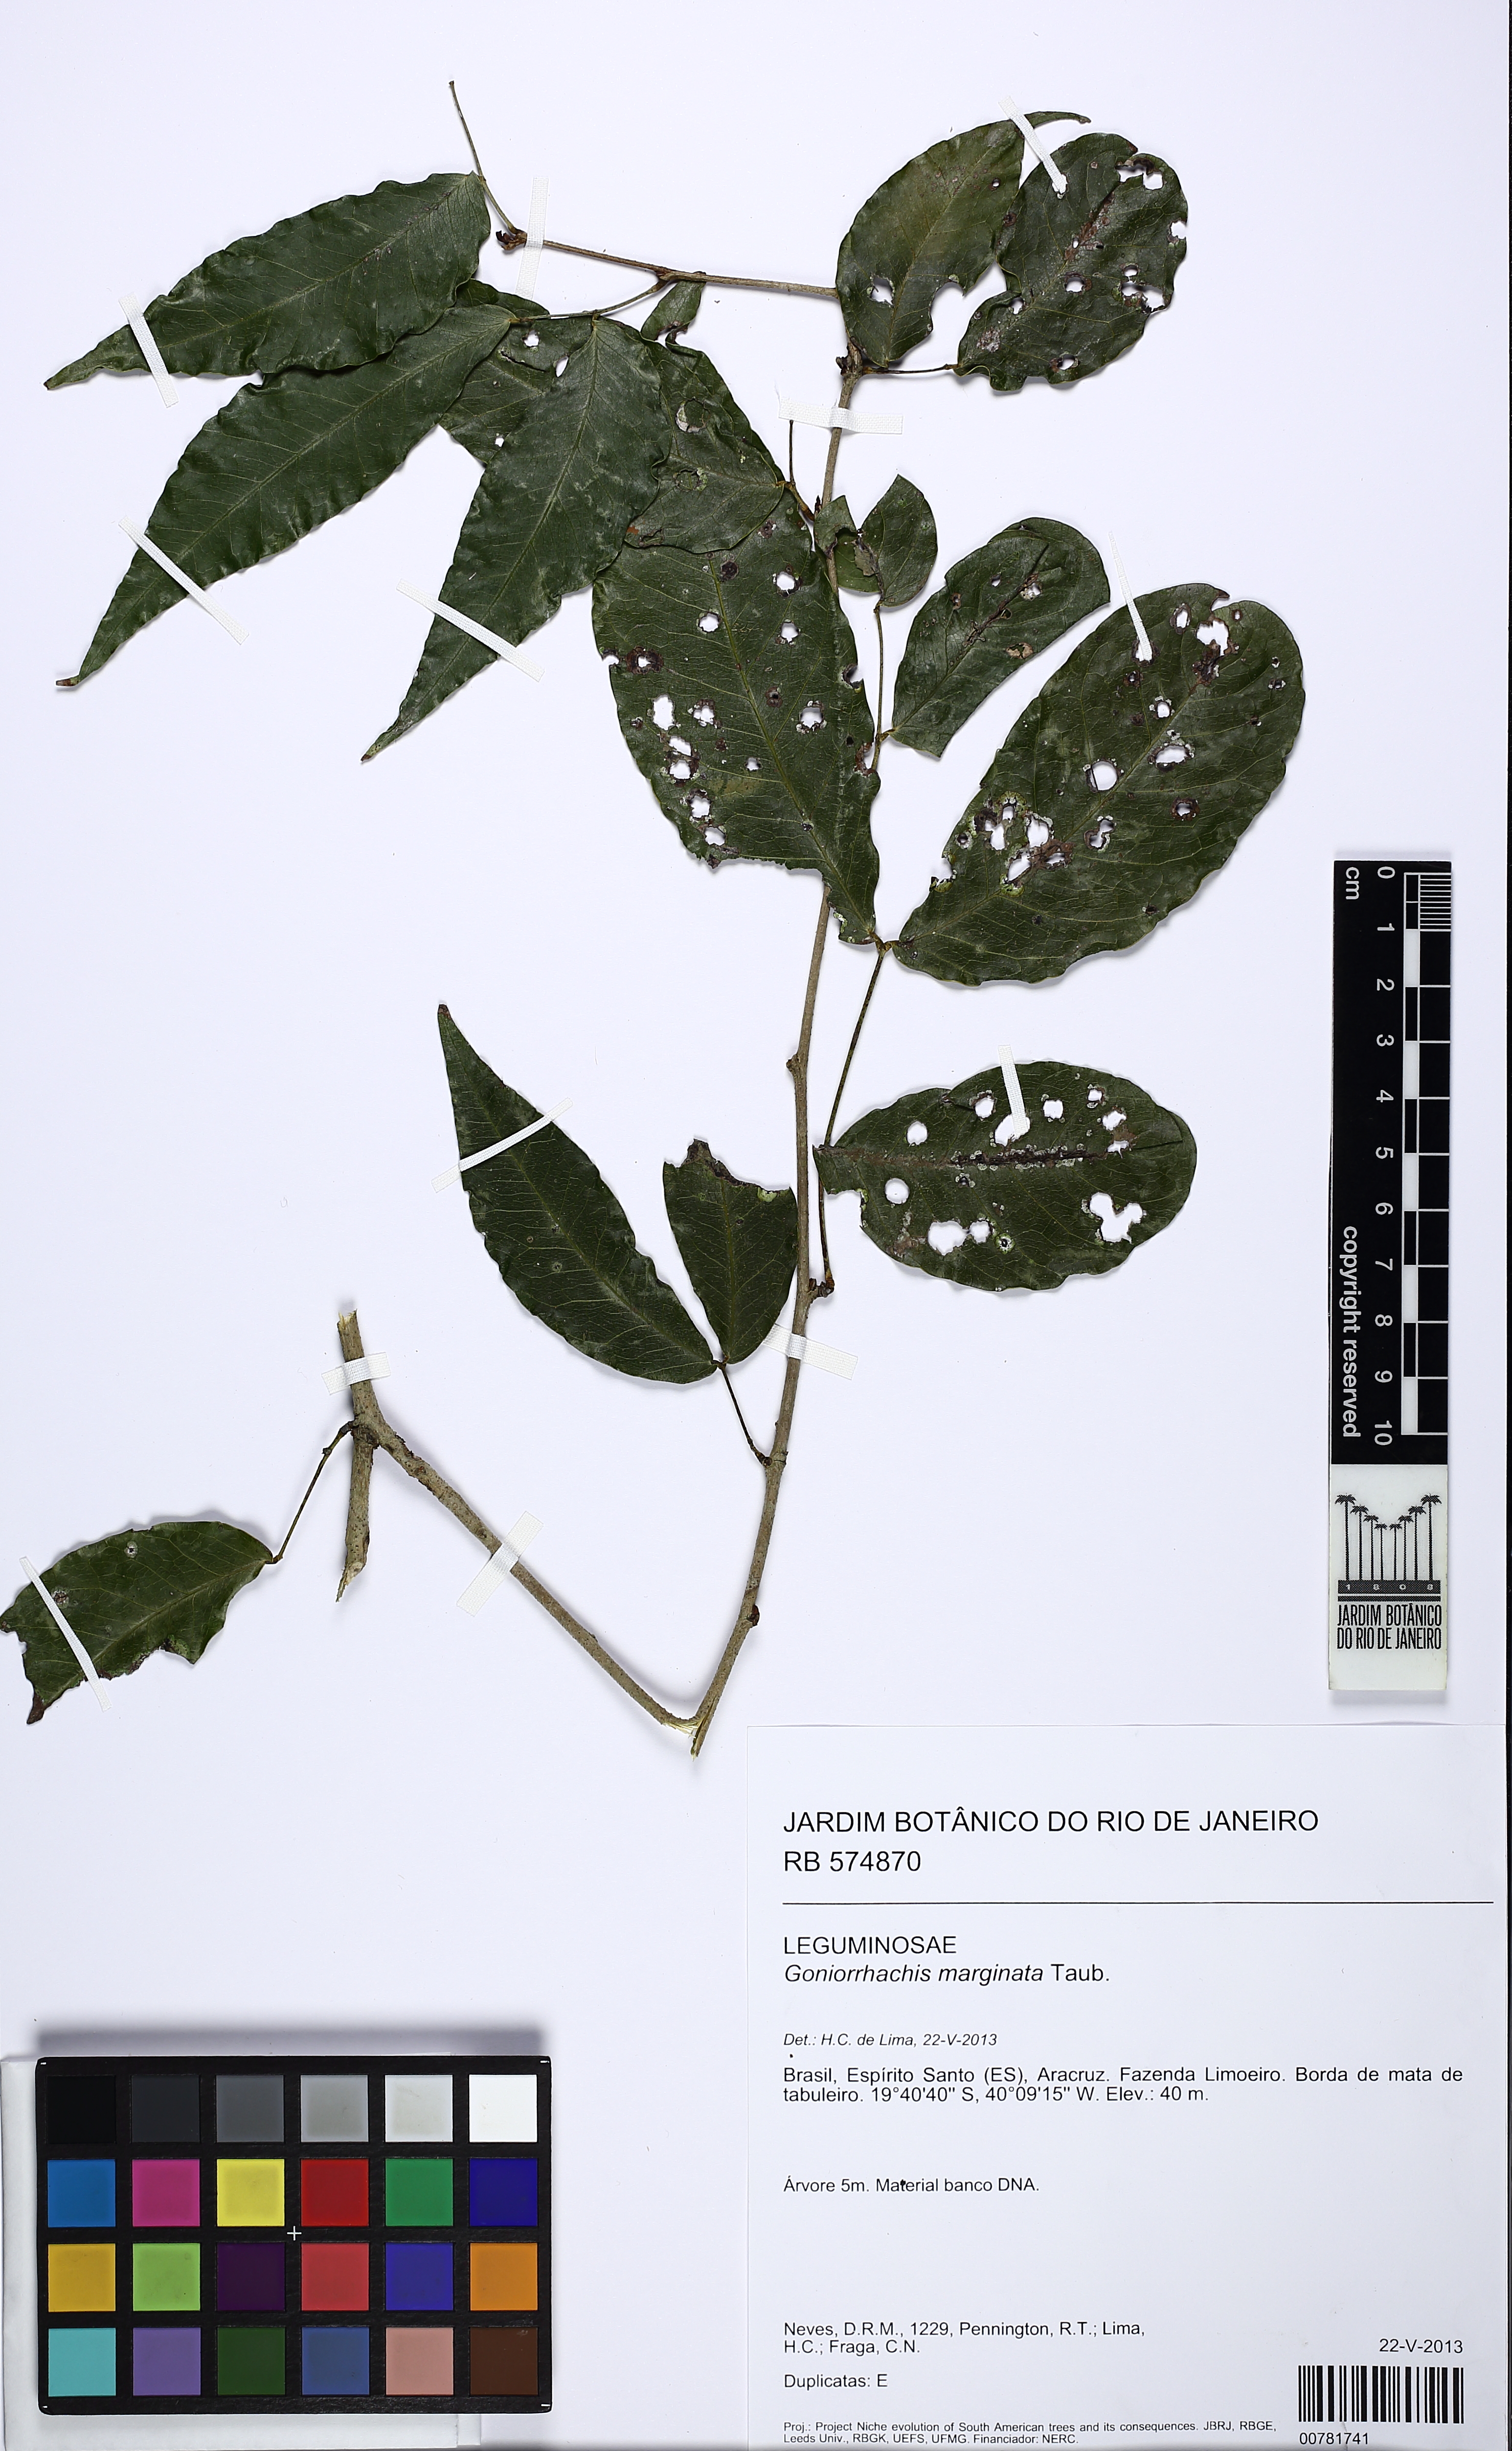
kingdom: Plantae
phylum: Tracheophyta
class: Magnoliopsida
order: Fabales
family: Fabaceae
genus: Goniorrhachis
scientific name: Goniorrhachis marginata
